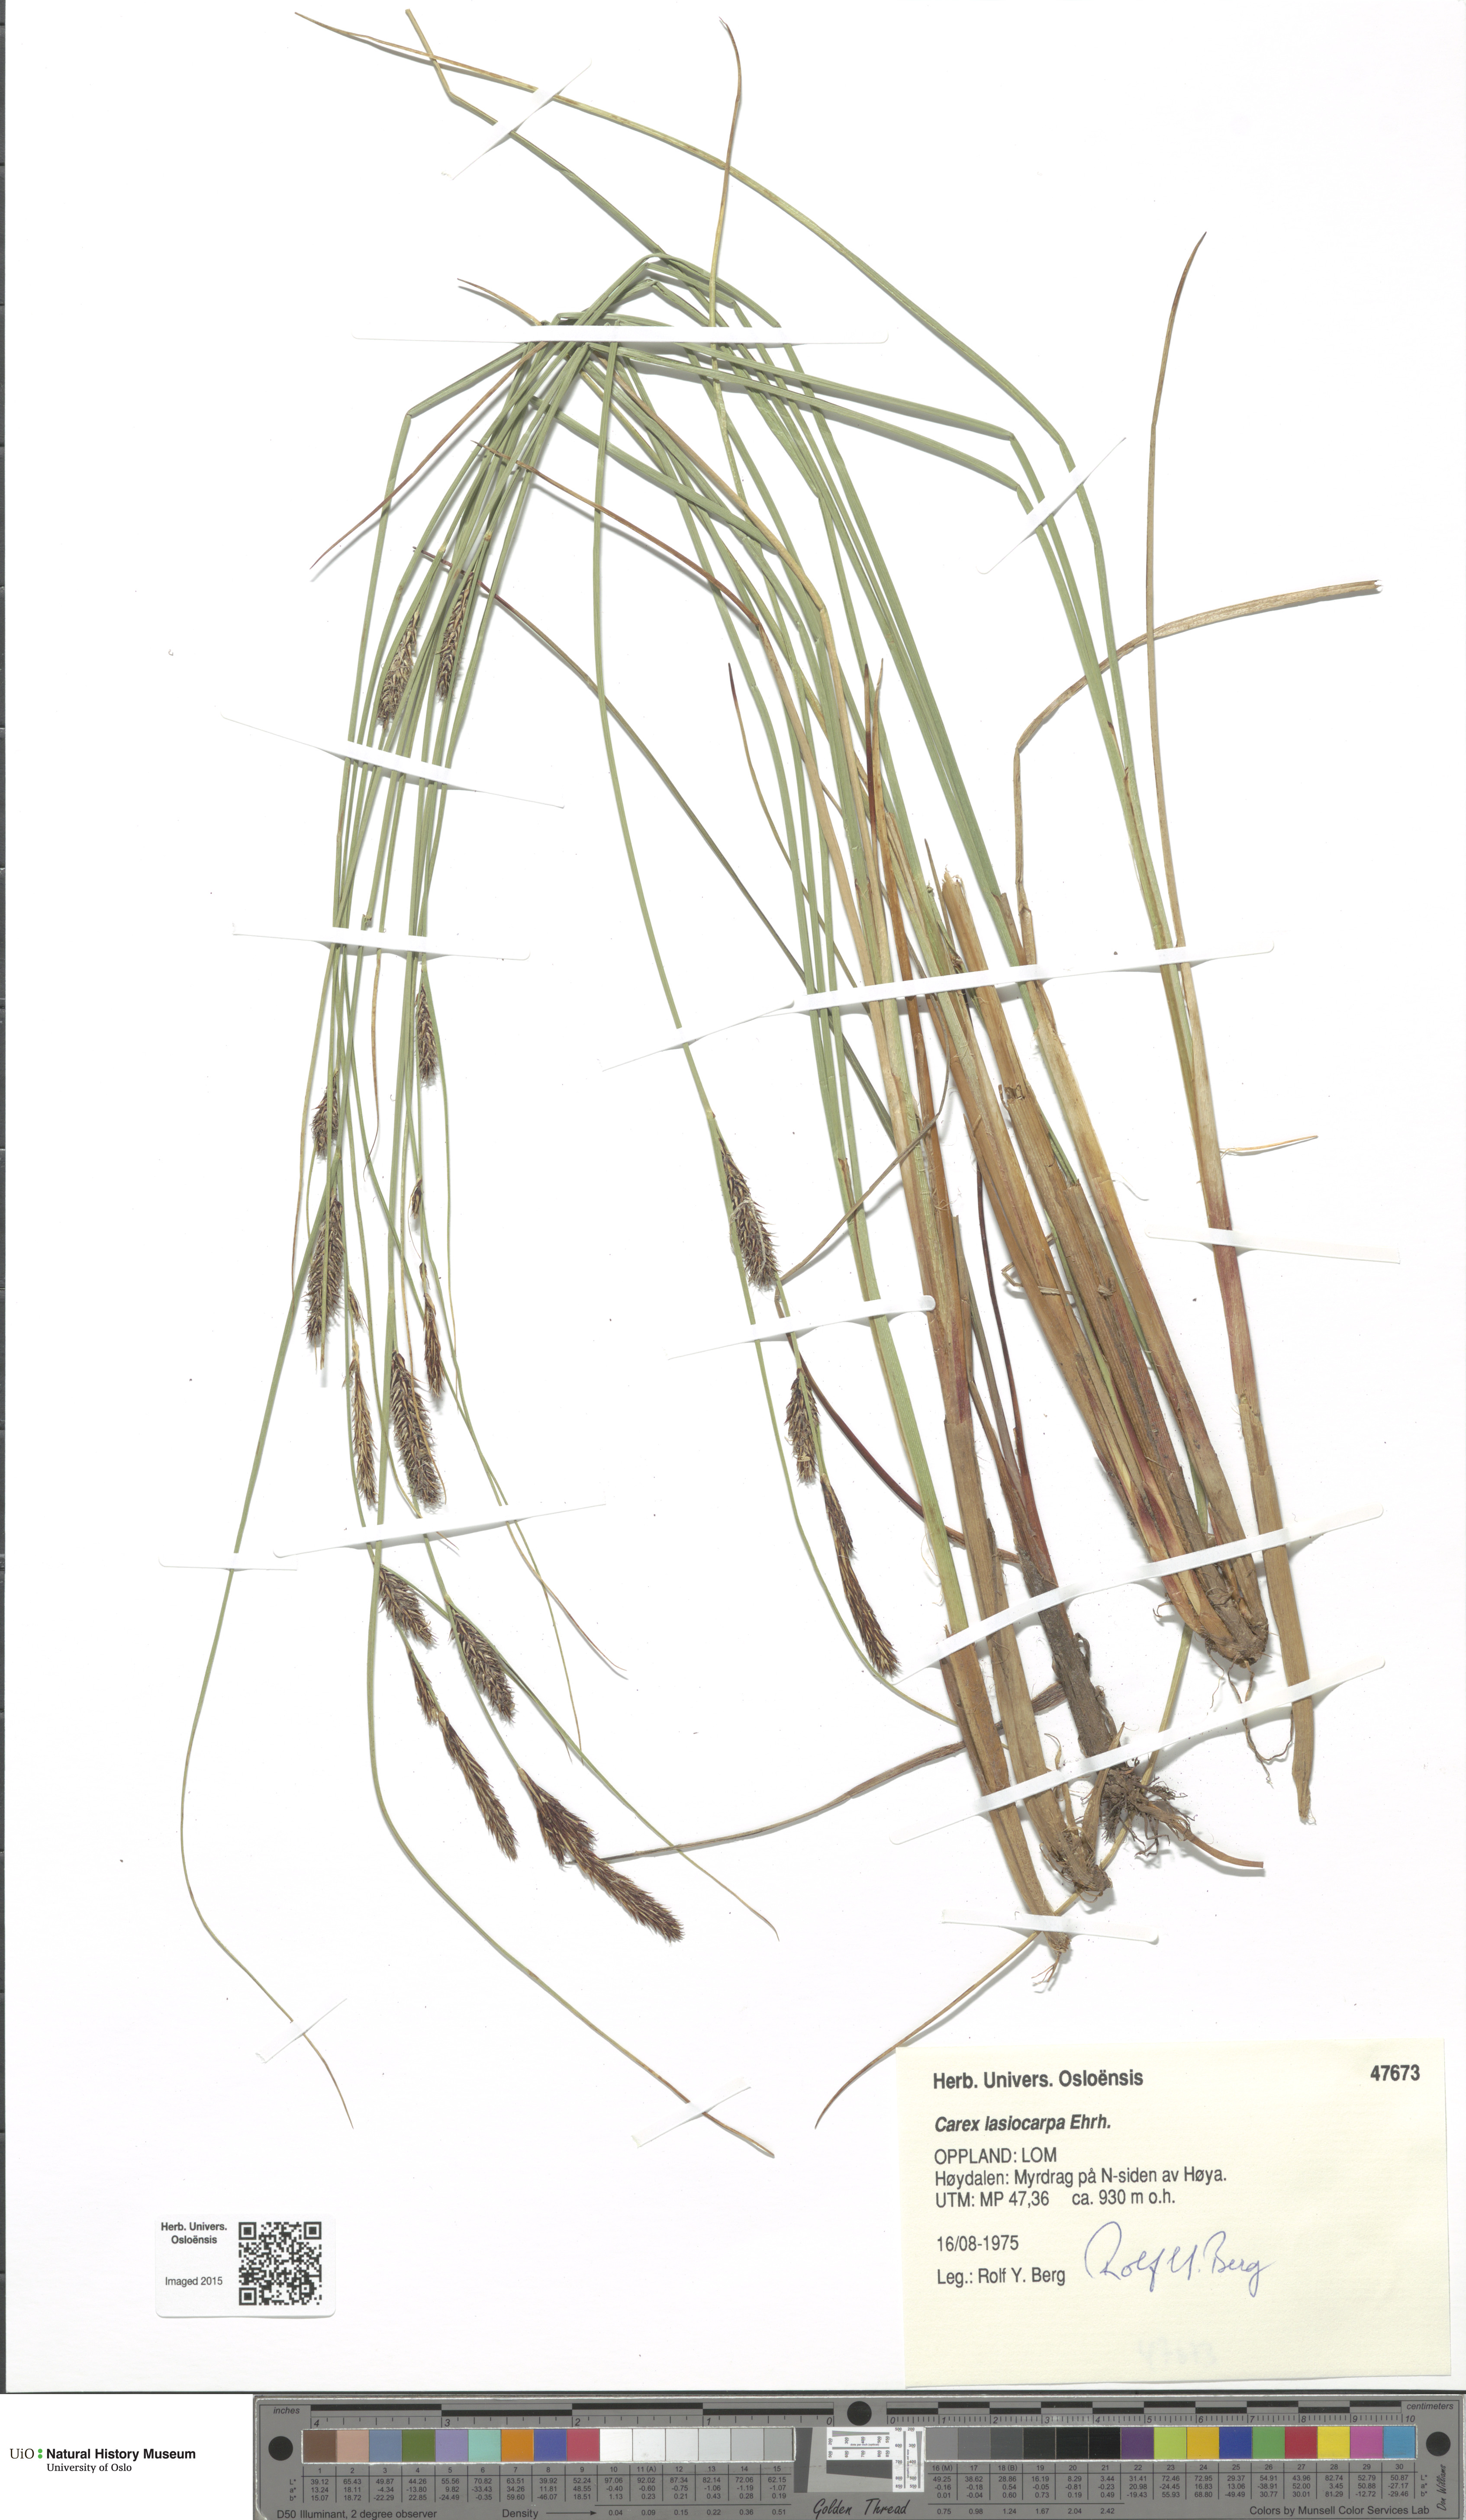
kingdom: Plantae
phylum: Tracheophyta
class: Liliopsida
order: Poales
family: Cyperaceae
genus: Carex
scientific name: Carex lasiocarpa
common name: Slender sedge
